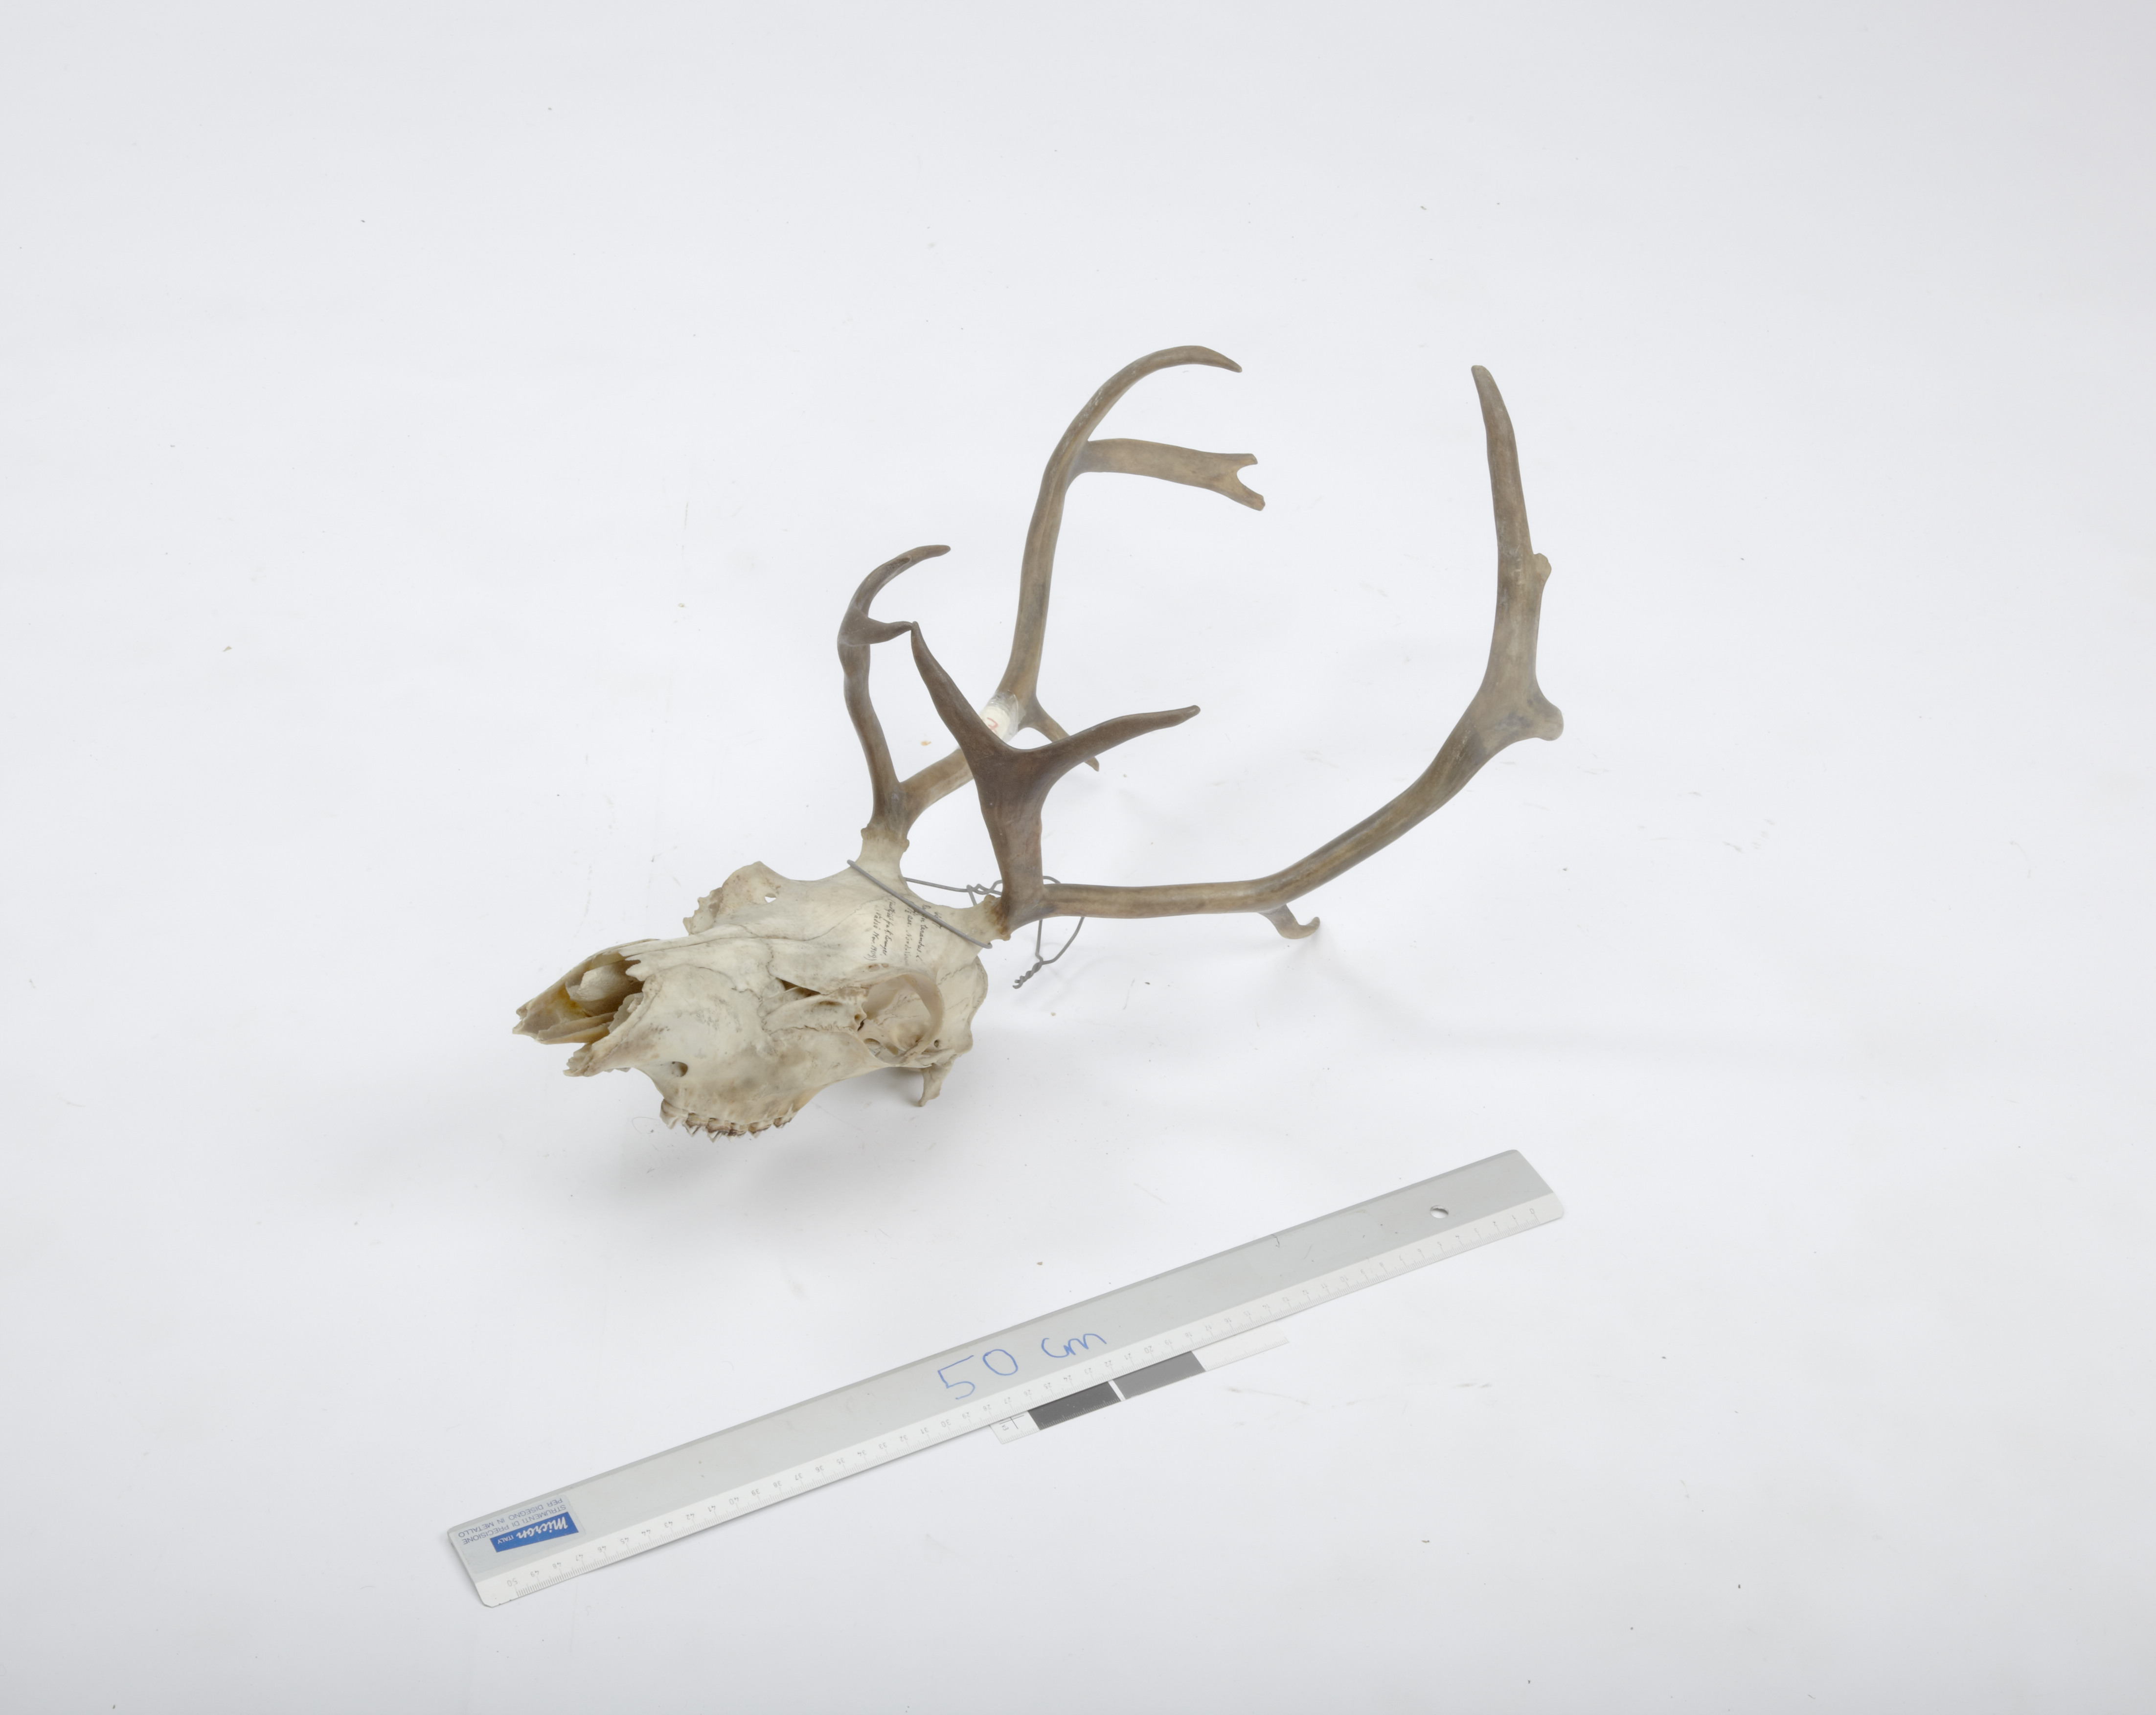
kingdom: Animalia
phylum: Chordata
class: Mammalia
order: Artiodactyla
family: Cervidae
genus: Rangifer
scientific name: Rangifer tarandus
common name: Reindeer
